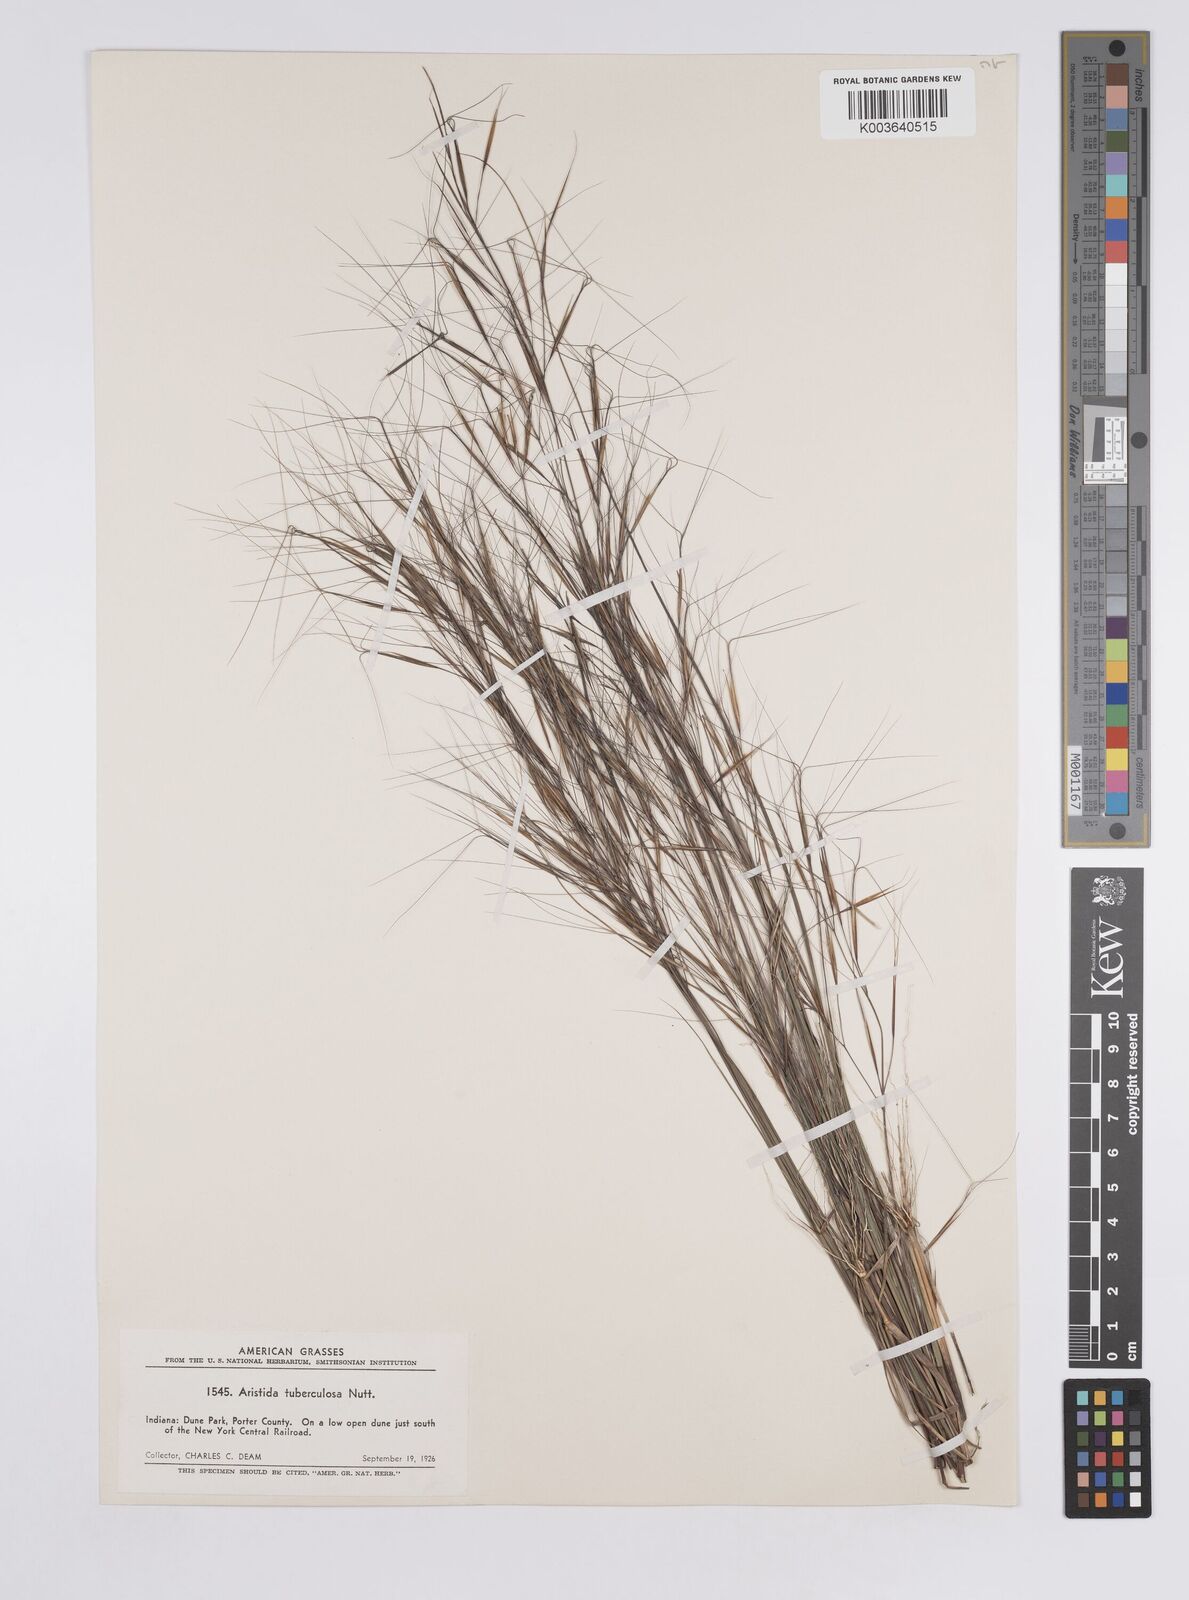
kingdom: Plantae
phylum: Tracheophyta
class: Liliopsida
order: Poales
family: Poaceae
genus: Aristida
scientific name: Aristida tuberculosa
